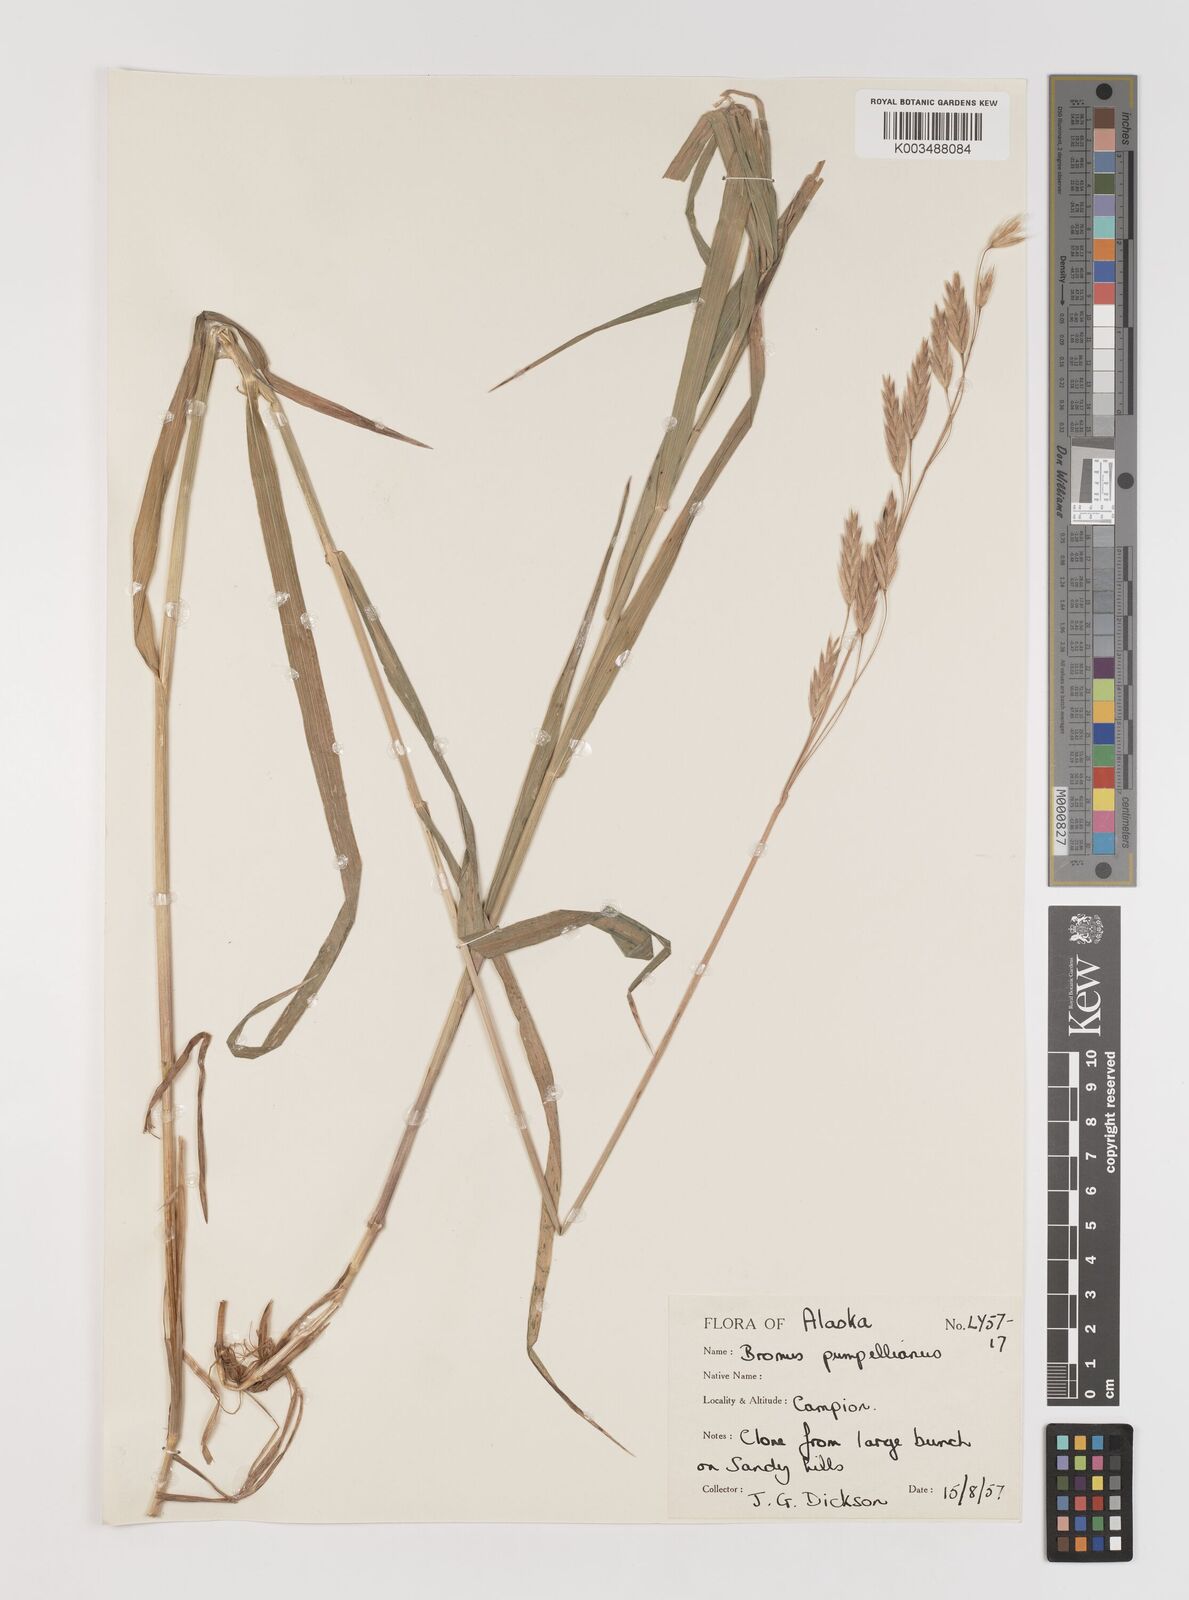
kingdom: Plantae
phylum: Tracheophyta
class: Liliopsida
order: Poales
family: Poaceae
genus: Bromus
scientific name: Bromus pumpellianus
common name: Pumpelly's brome
